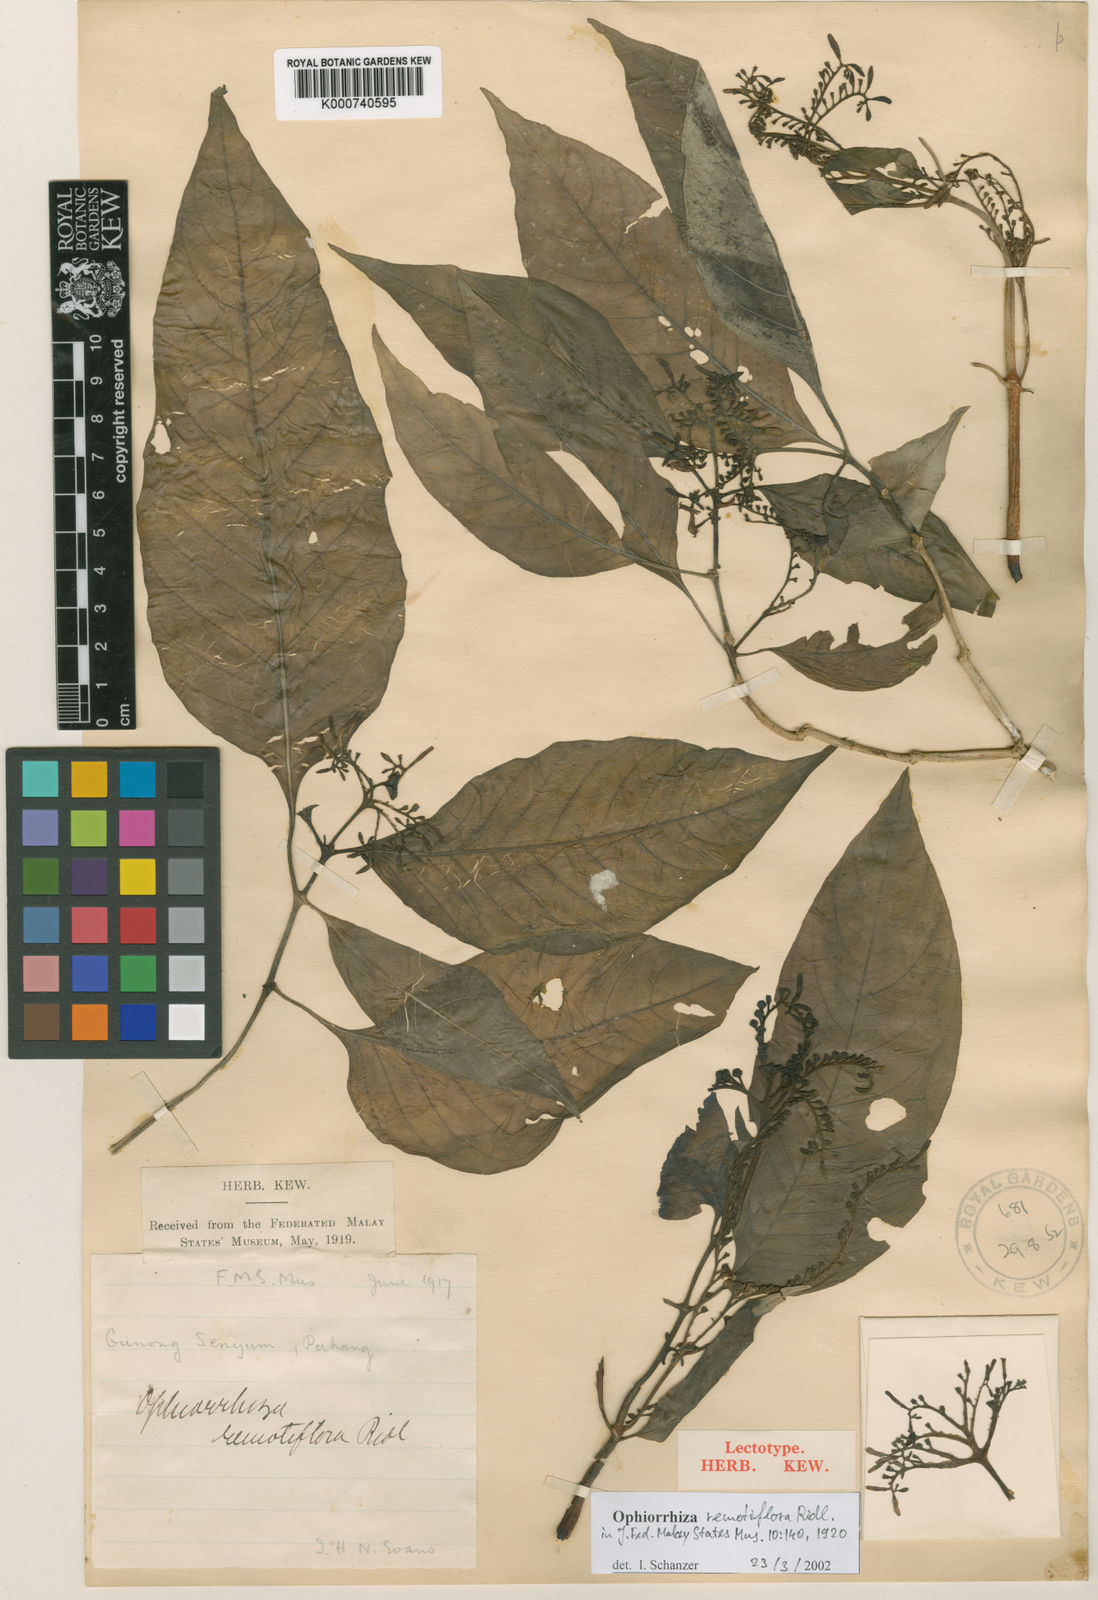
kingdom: Plantae
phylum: Tracheophyta
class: Magnoliopsida
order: Gentianales
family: Rubiaceae
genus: Ophiorrhiza
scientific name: Ophiorrhiza rosea
